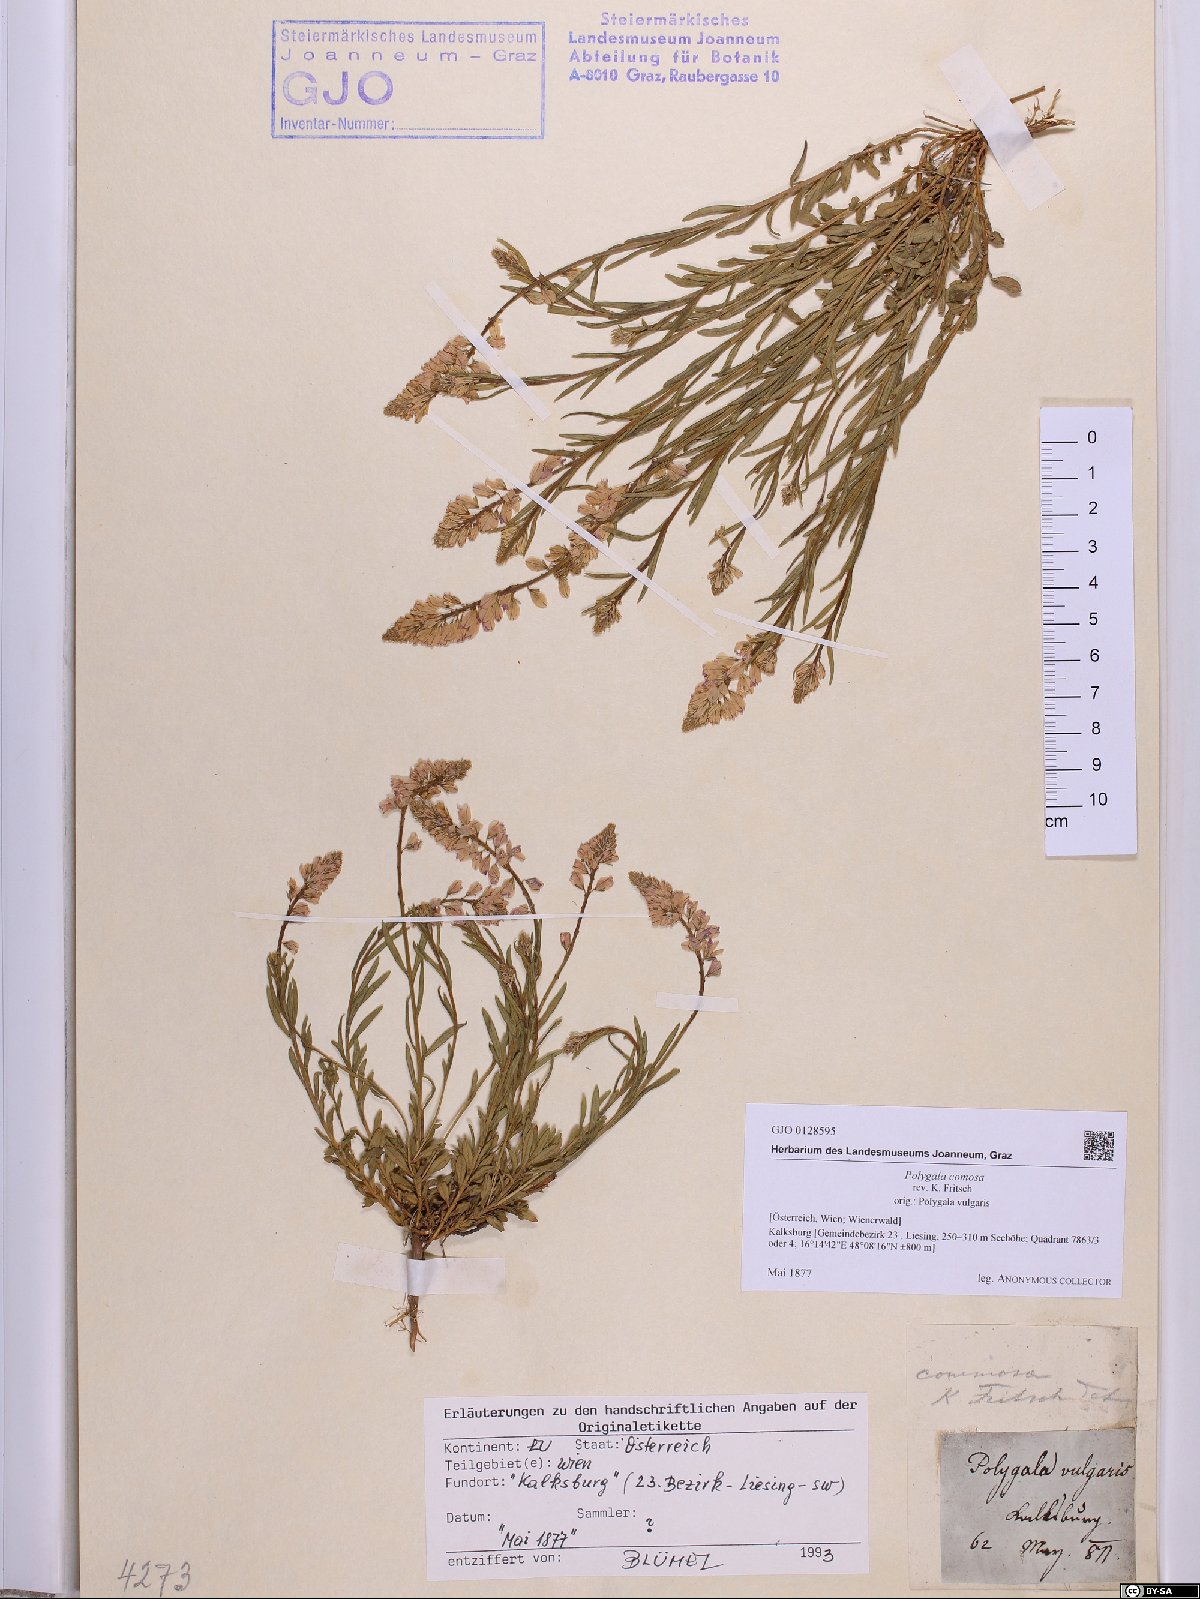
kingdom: Plantae
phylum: Tracheophyta
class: Magnoliopsida
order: Fabales
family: Polygalaceae
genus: Polygala
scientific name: Polygala comosa
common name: Tufted milkwort
